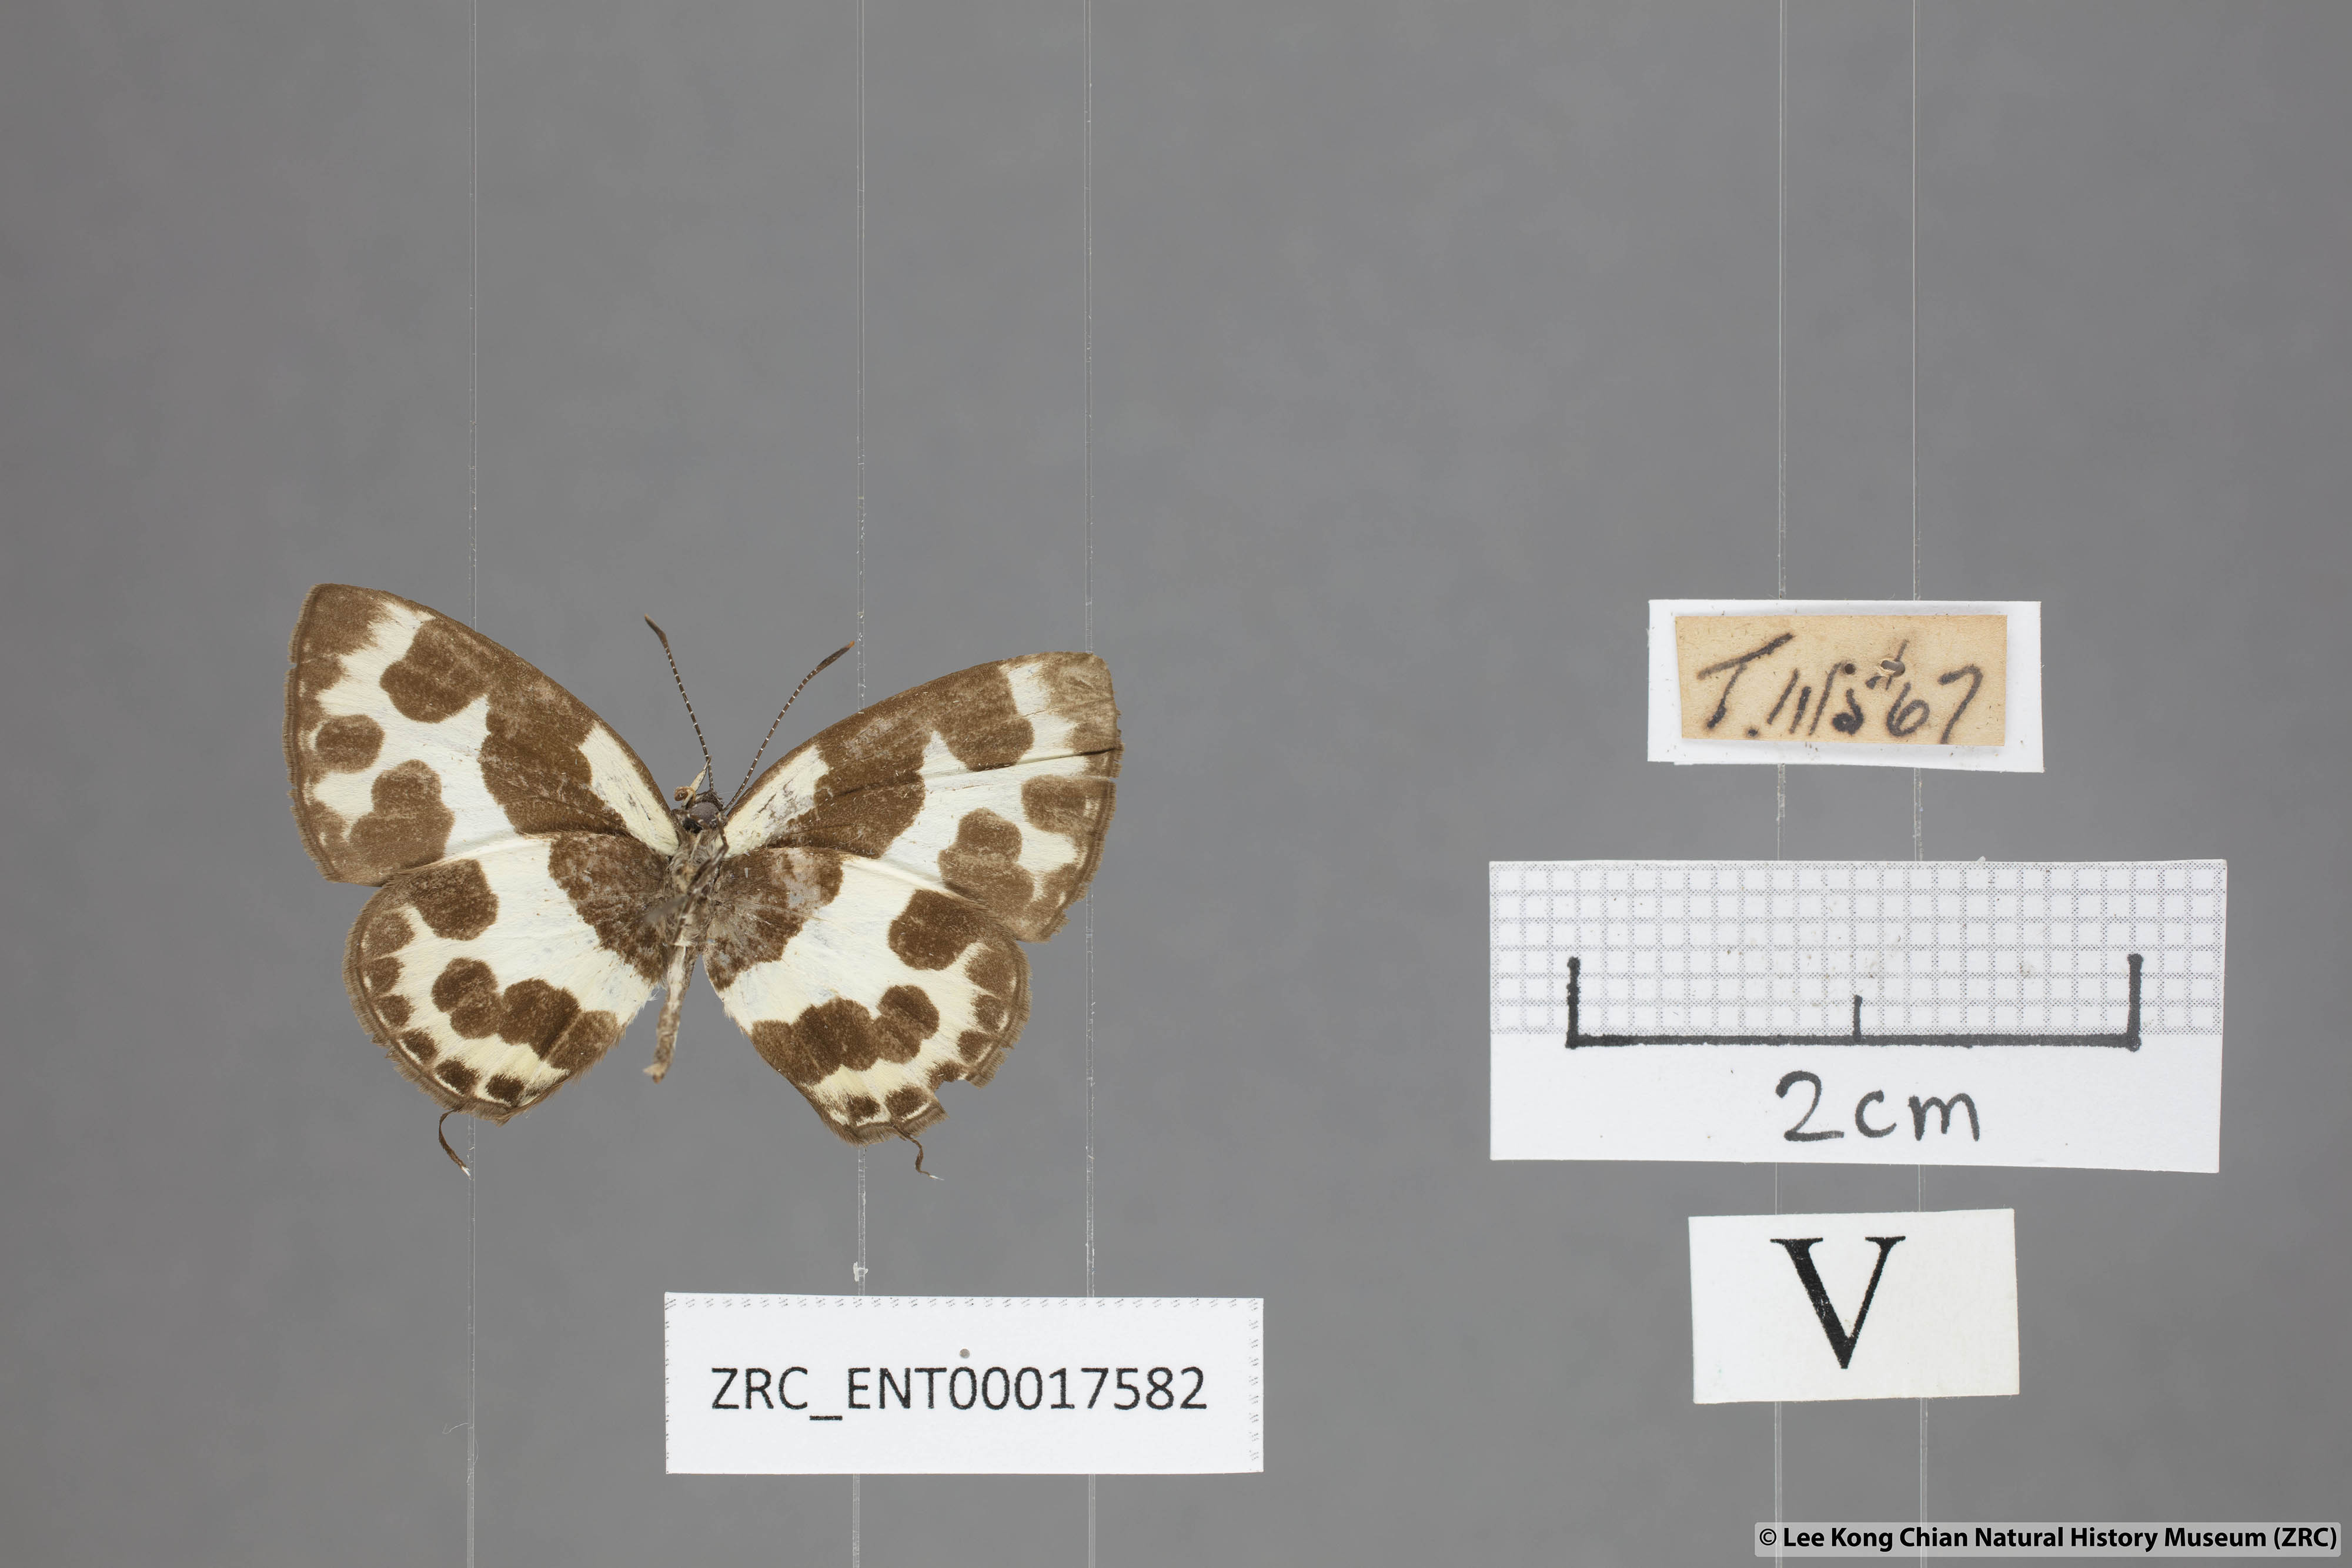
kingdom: Animalia
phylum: Arthropoda
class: Insecta
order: Lepidoptera
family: Lycaenidae
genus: Caleta
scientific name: Caleta elna
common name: Elbowed pierrot
